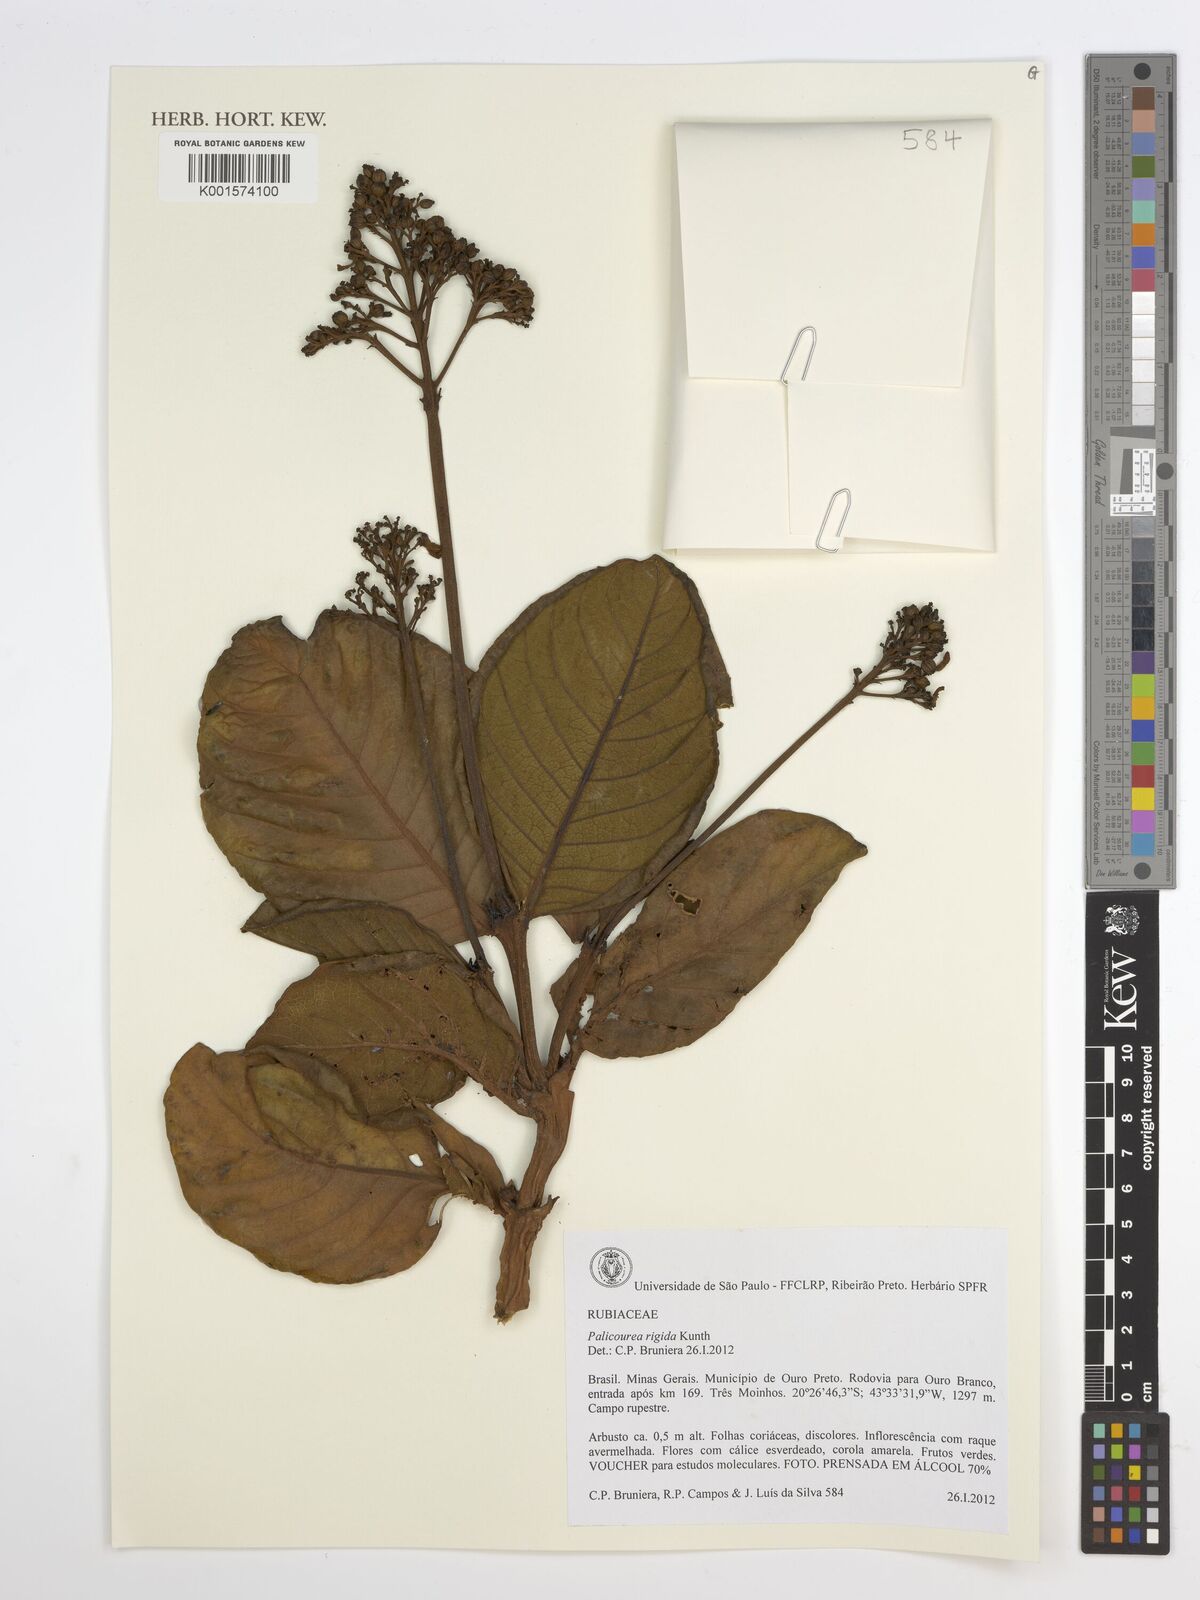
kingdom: Plantae
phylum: Tracheophyta
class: Magnoliopsida
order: Gentianales
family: Rubiaceae
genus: Palicourea
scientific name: Palicourea rigida
